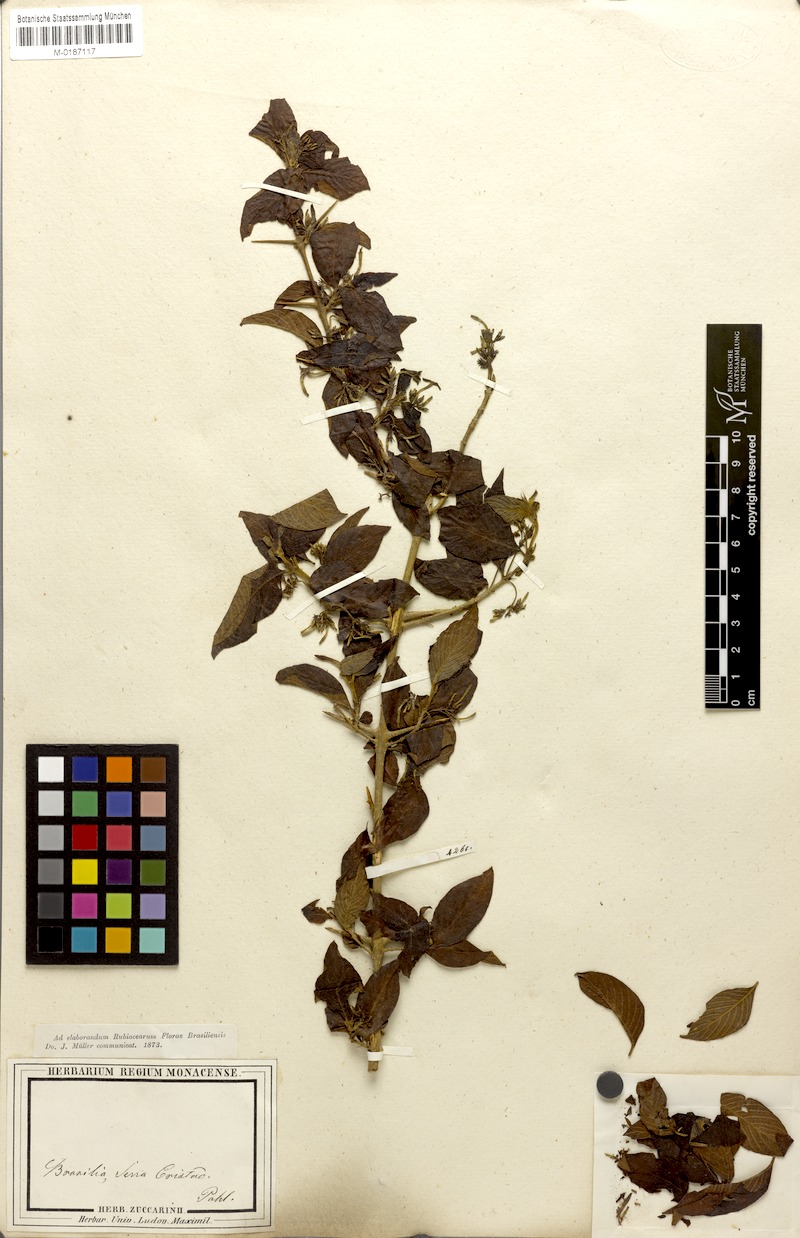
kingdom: Plantae
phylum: Tracheophyta
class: Magnoliopsida
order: Gentianales
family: Rubiaceae
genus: Chomelia
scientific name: Chomelia pohliana
